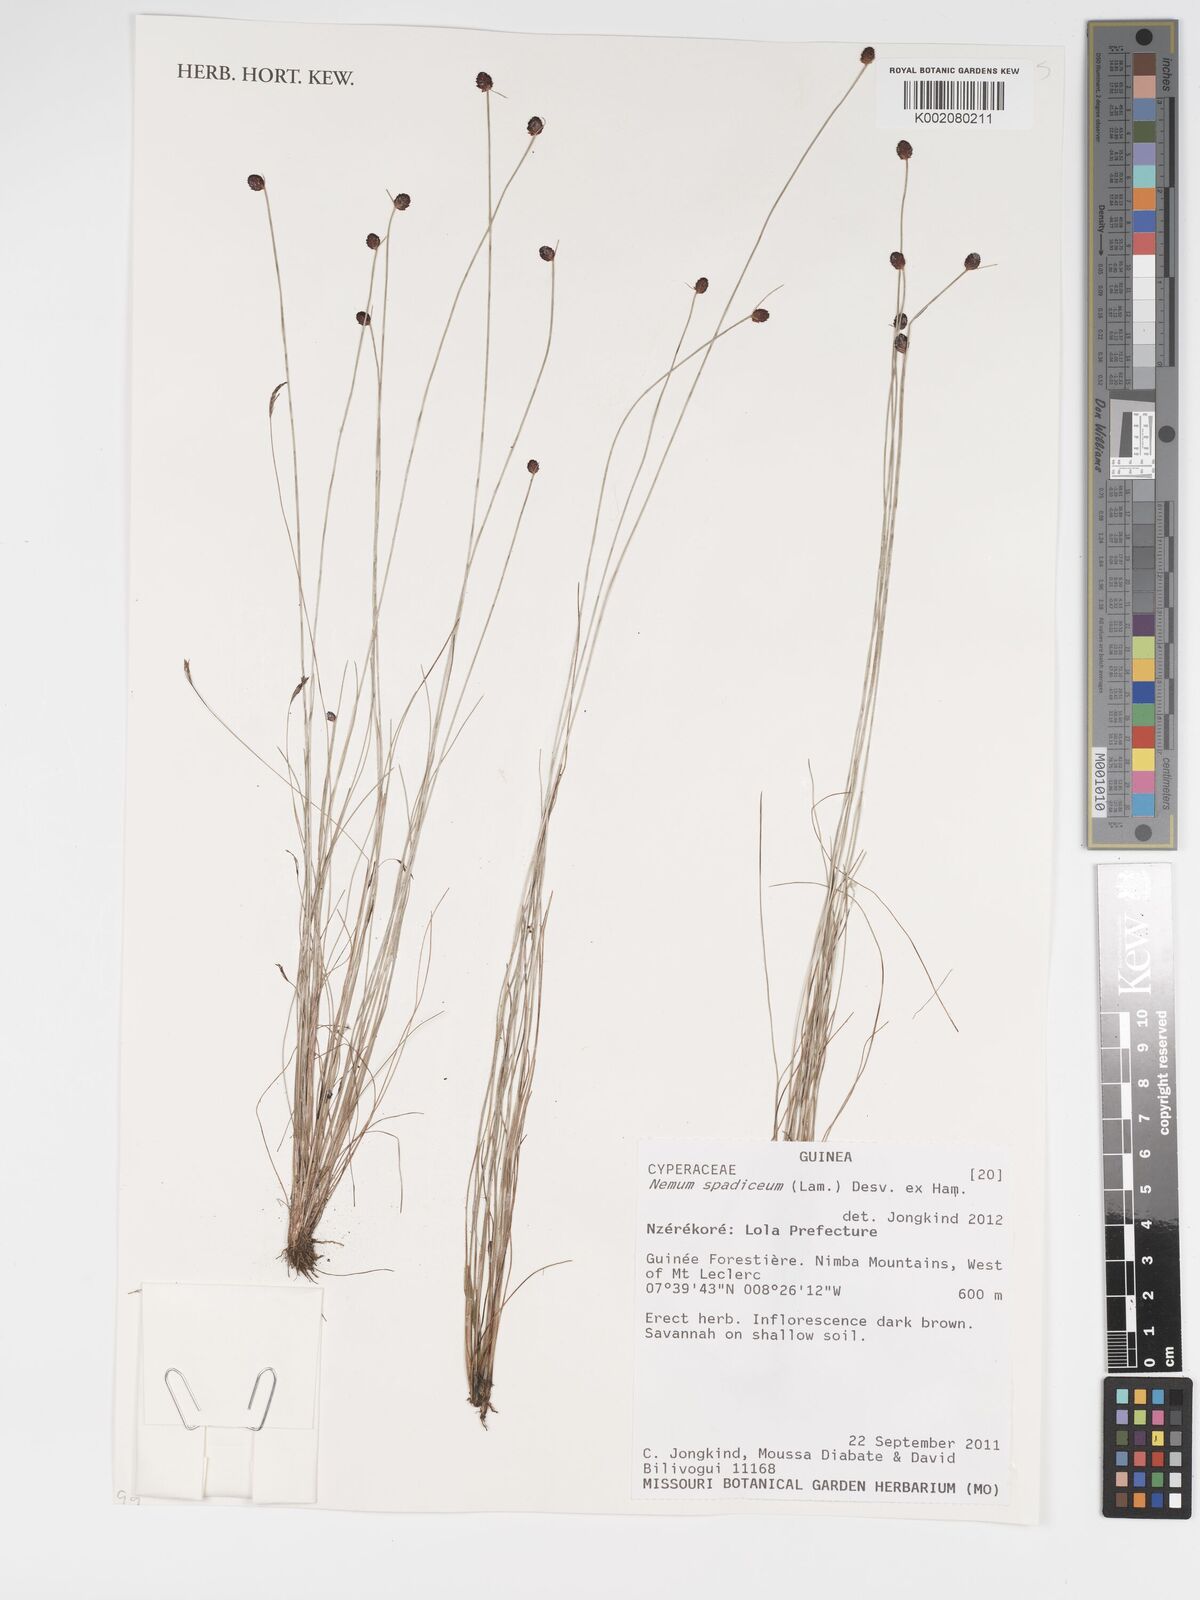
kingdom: Plantae
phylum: Tracheophyta
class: Liliopsida
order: Poales
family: Cyperaceae
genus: Bulbostylis
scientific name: Bulbostylis briziformis
